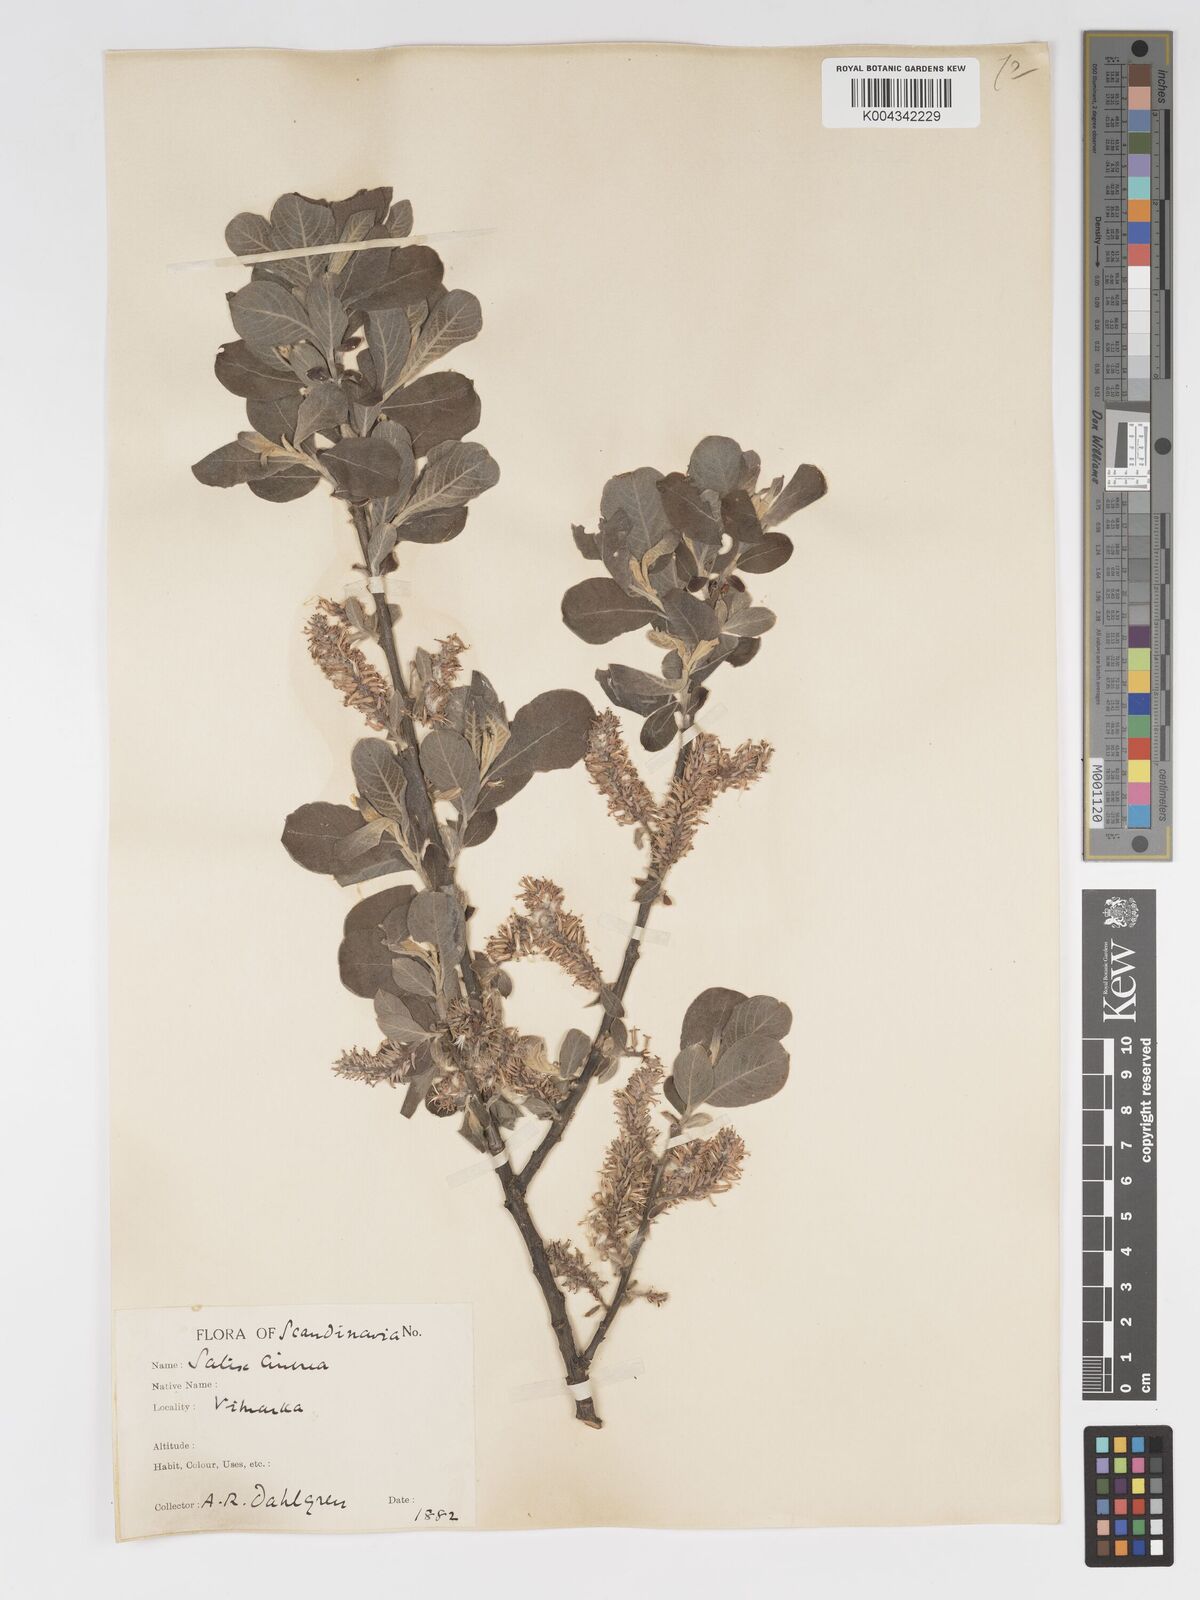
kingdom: Plantae
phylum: Tracheophyta
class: Magnoliopsida
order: Malpighiales
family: Salicaceae
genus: Salix
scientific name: Salix
